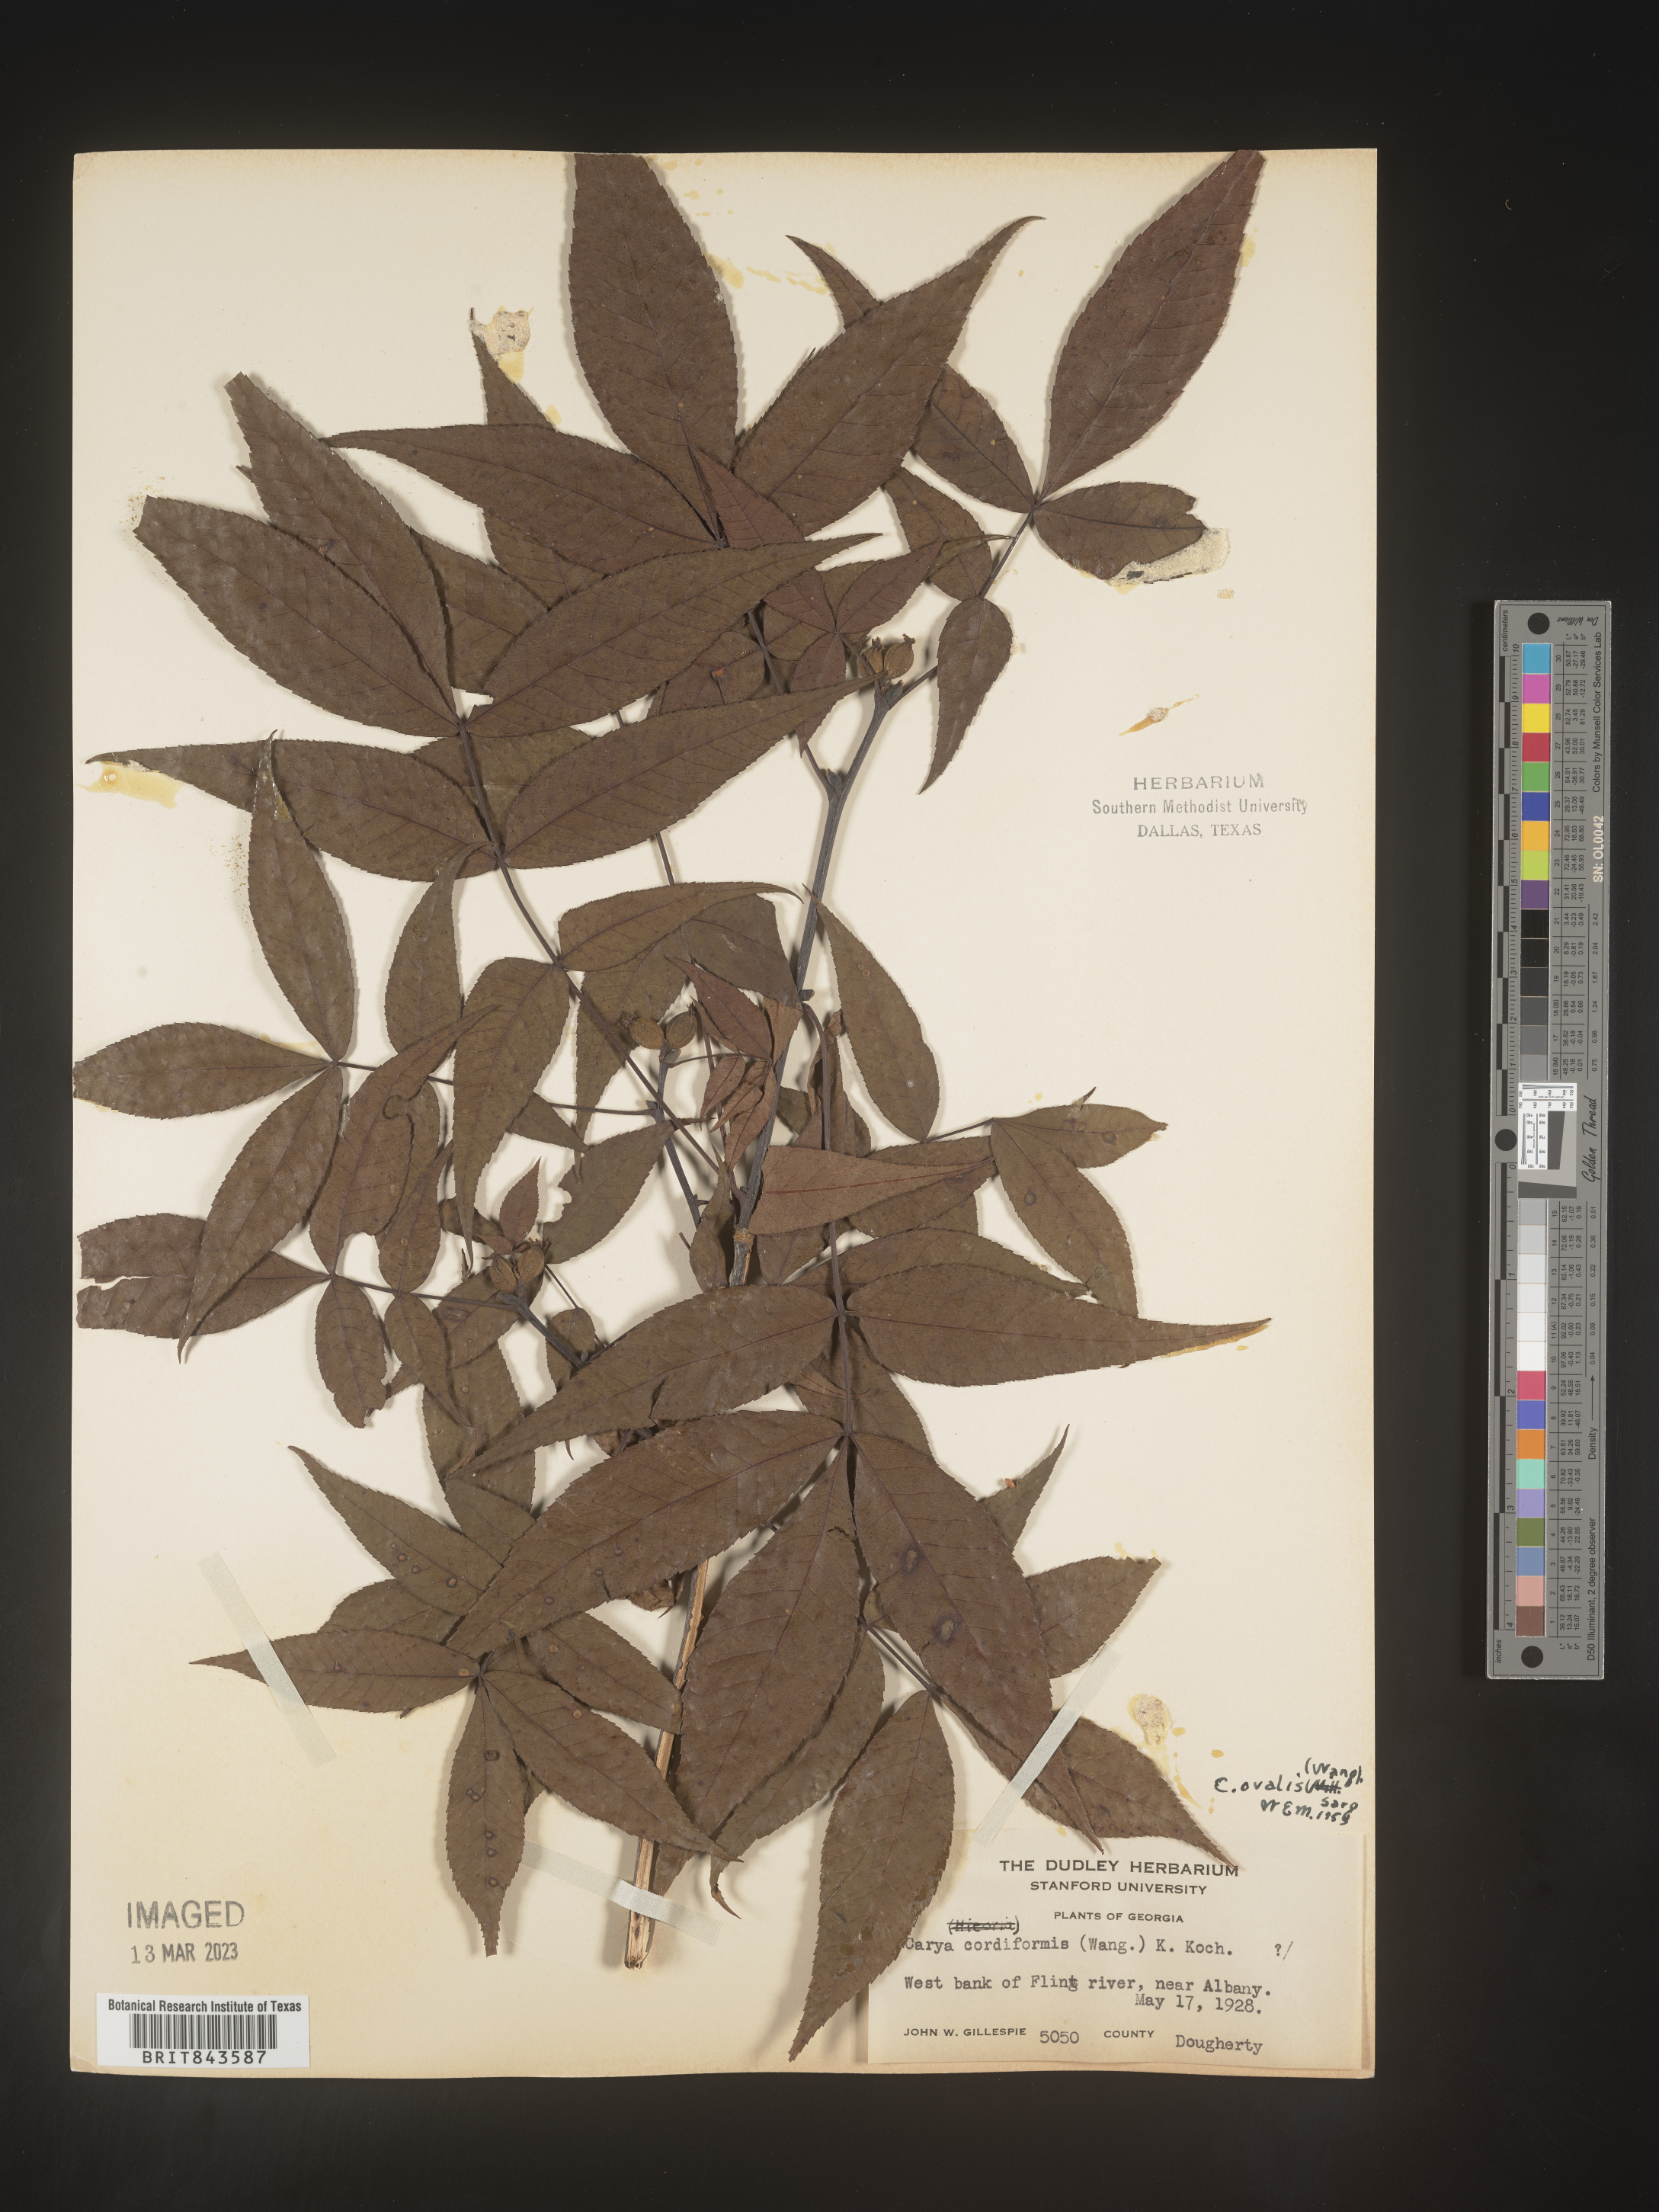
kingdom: Plantae
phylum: Tracheophyta
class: Magnoliopsida
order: Fagales
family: Juglandaceae
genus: Carya
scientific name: Carya ovalis
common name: False shagbark
